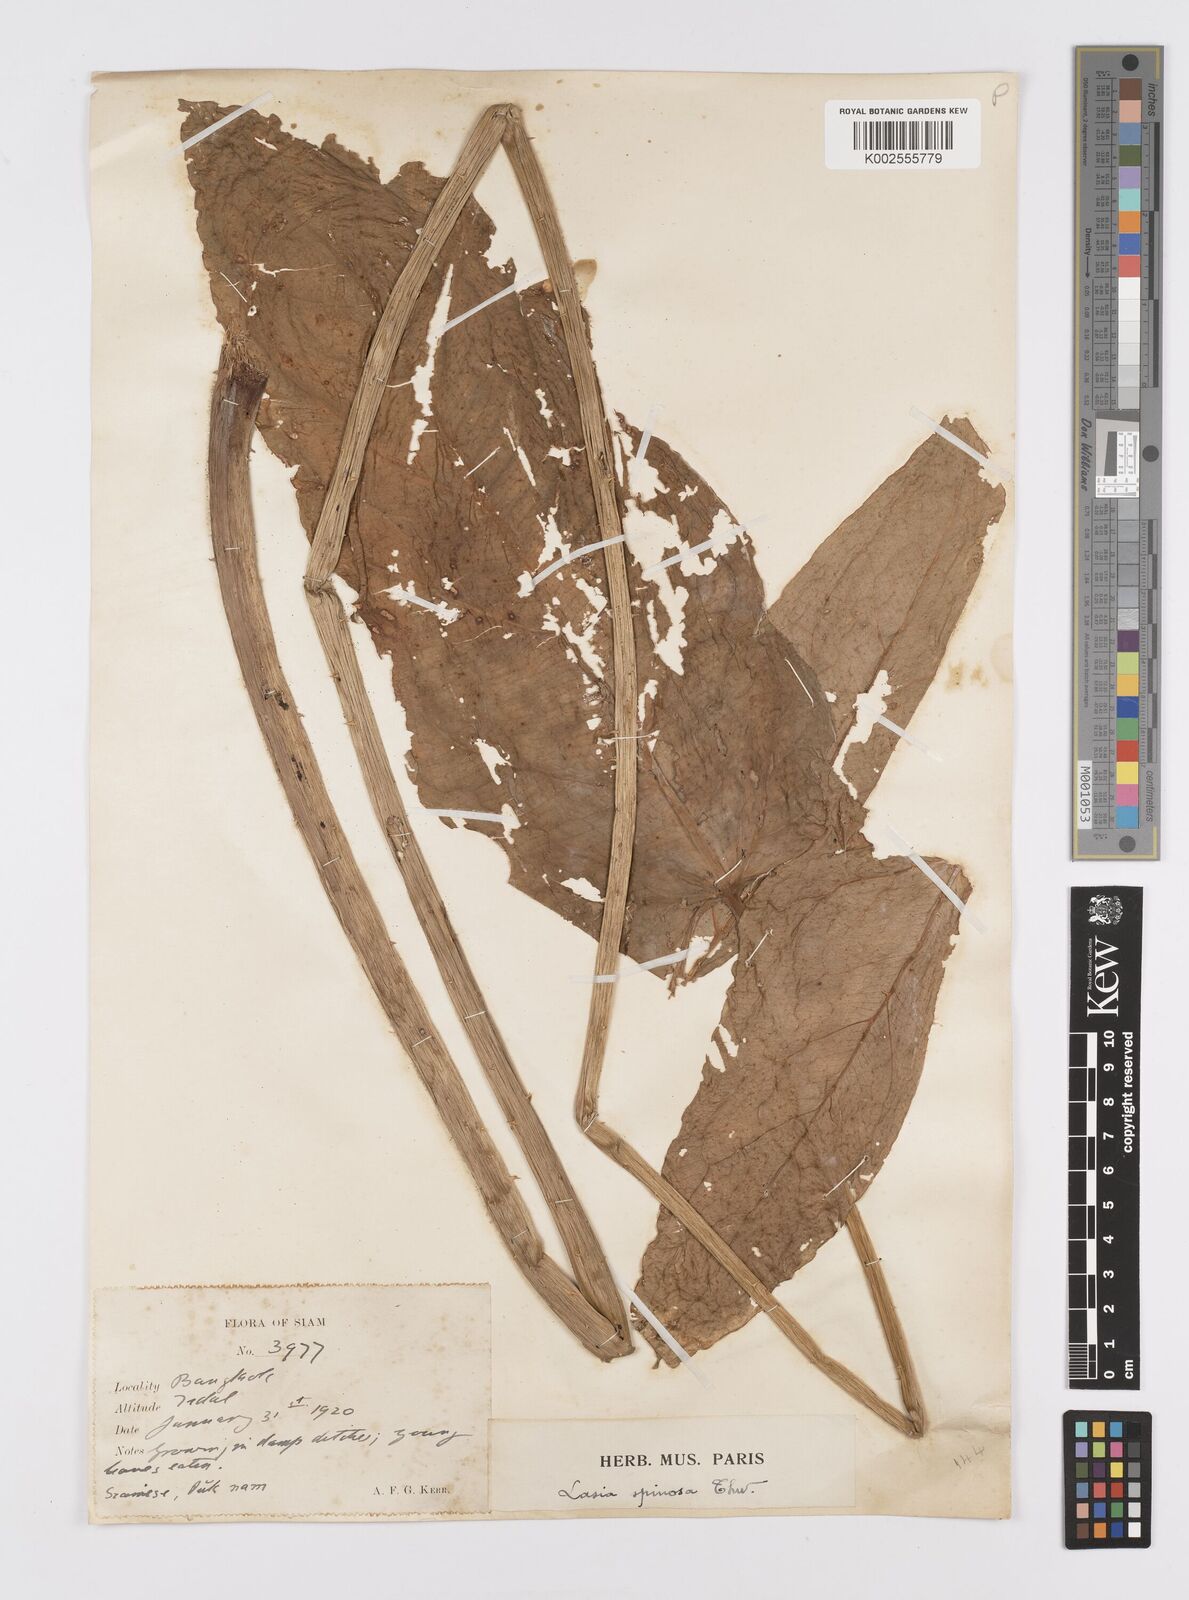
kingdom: Plantae
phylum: Tracheophyta
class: Liliopsida
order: Alismatales
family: Araceae
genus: Lasia
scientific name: Lasia spinosa
